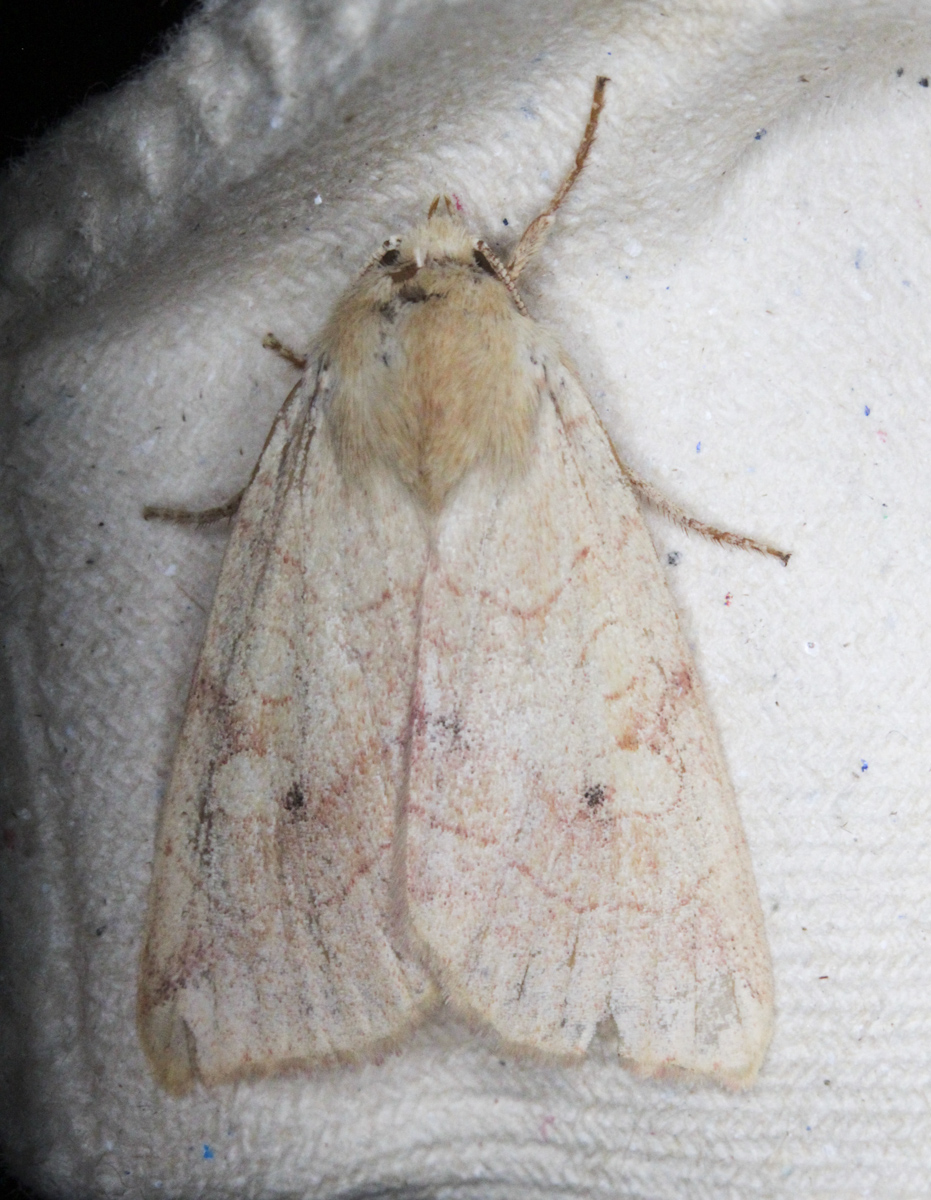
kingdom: Animalia
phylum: Arthropoda
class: Insecta
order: Lepidoptera
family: Noctuidae
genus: Enargia
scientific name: Enargia paleacea
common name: Angle-striped sallow
